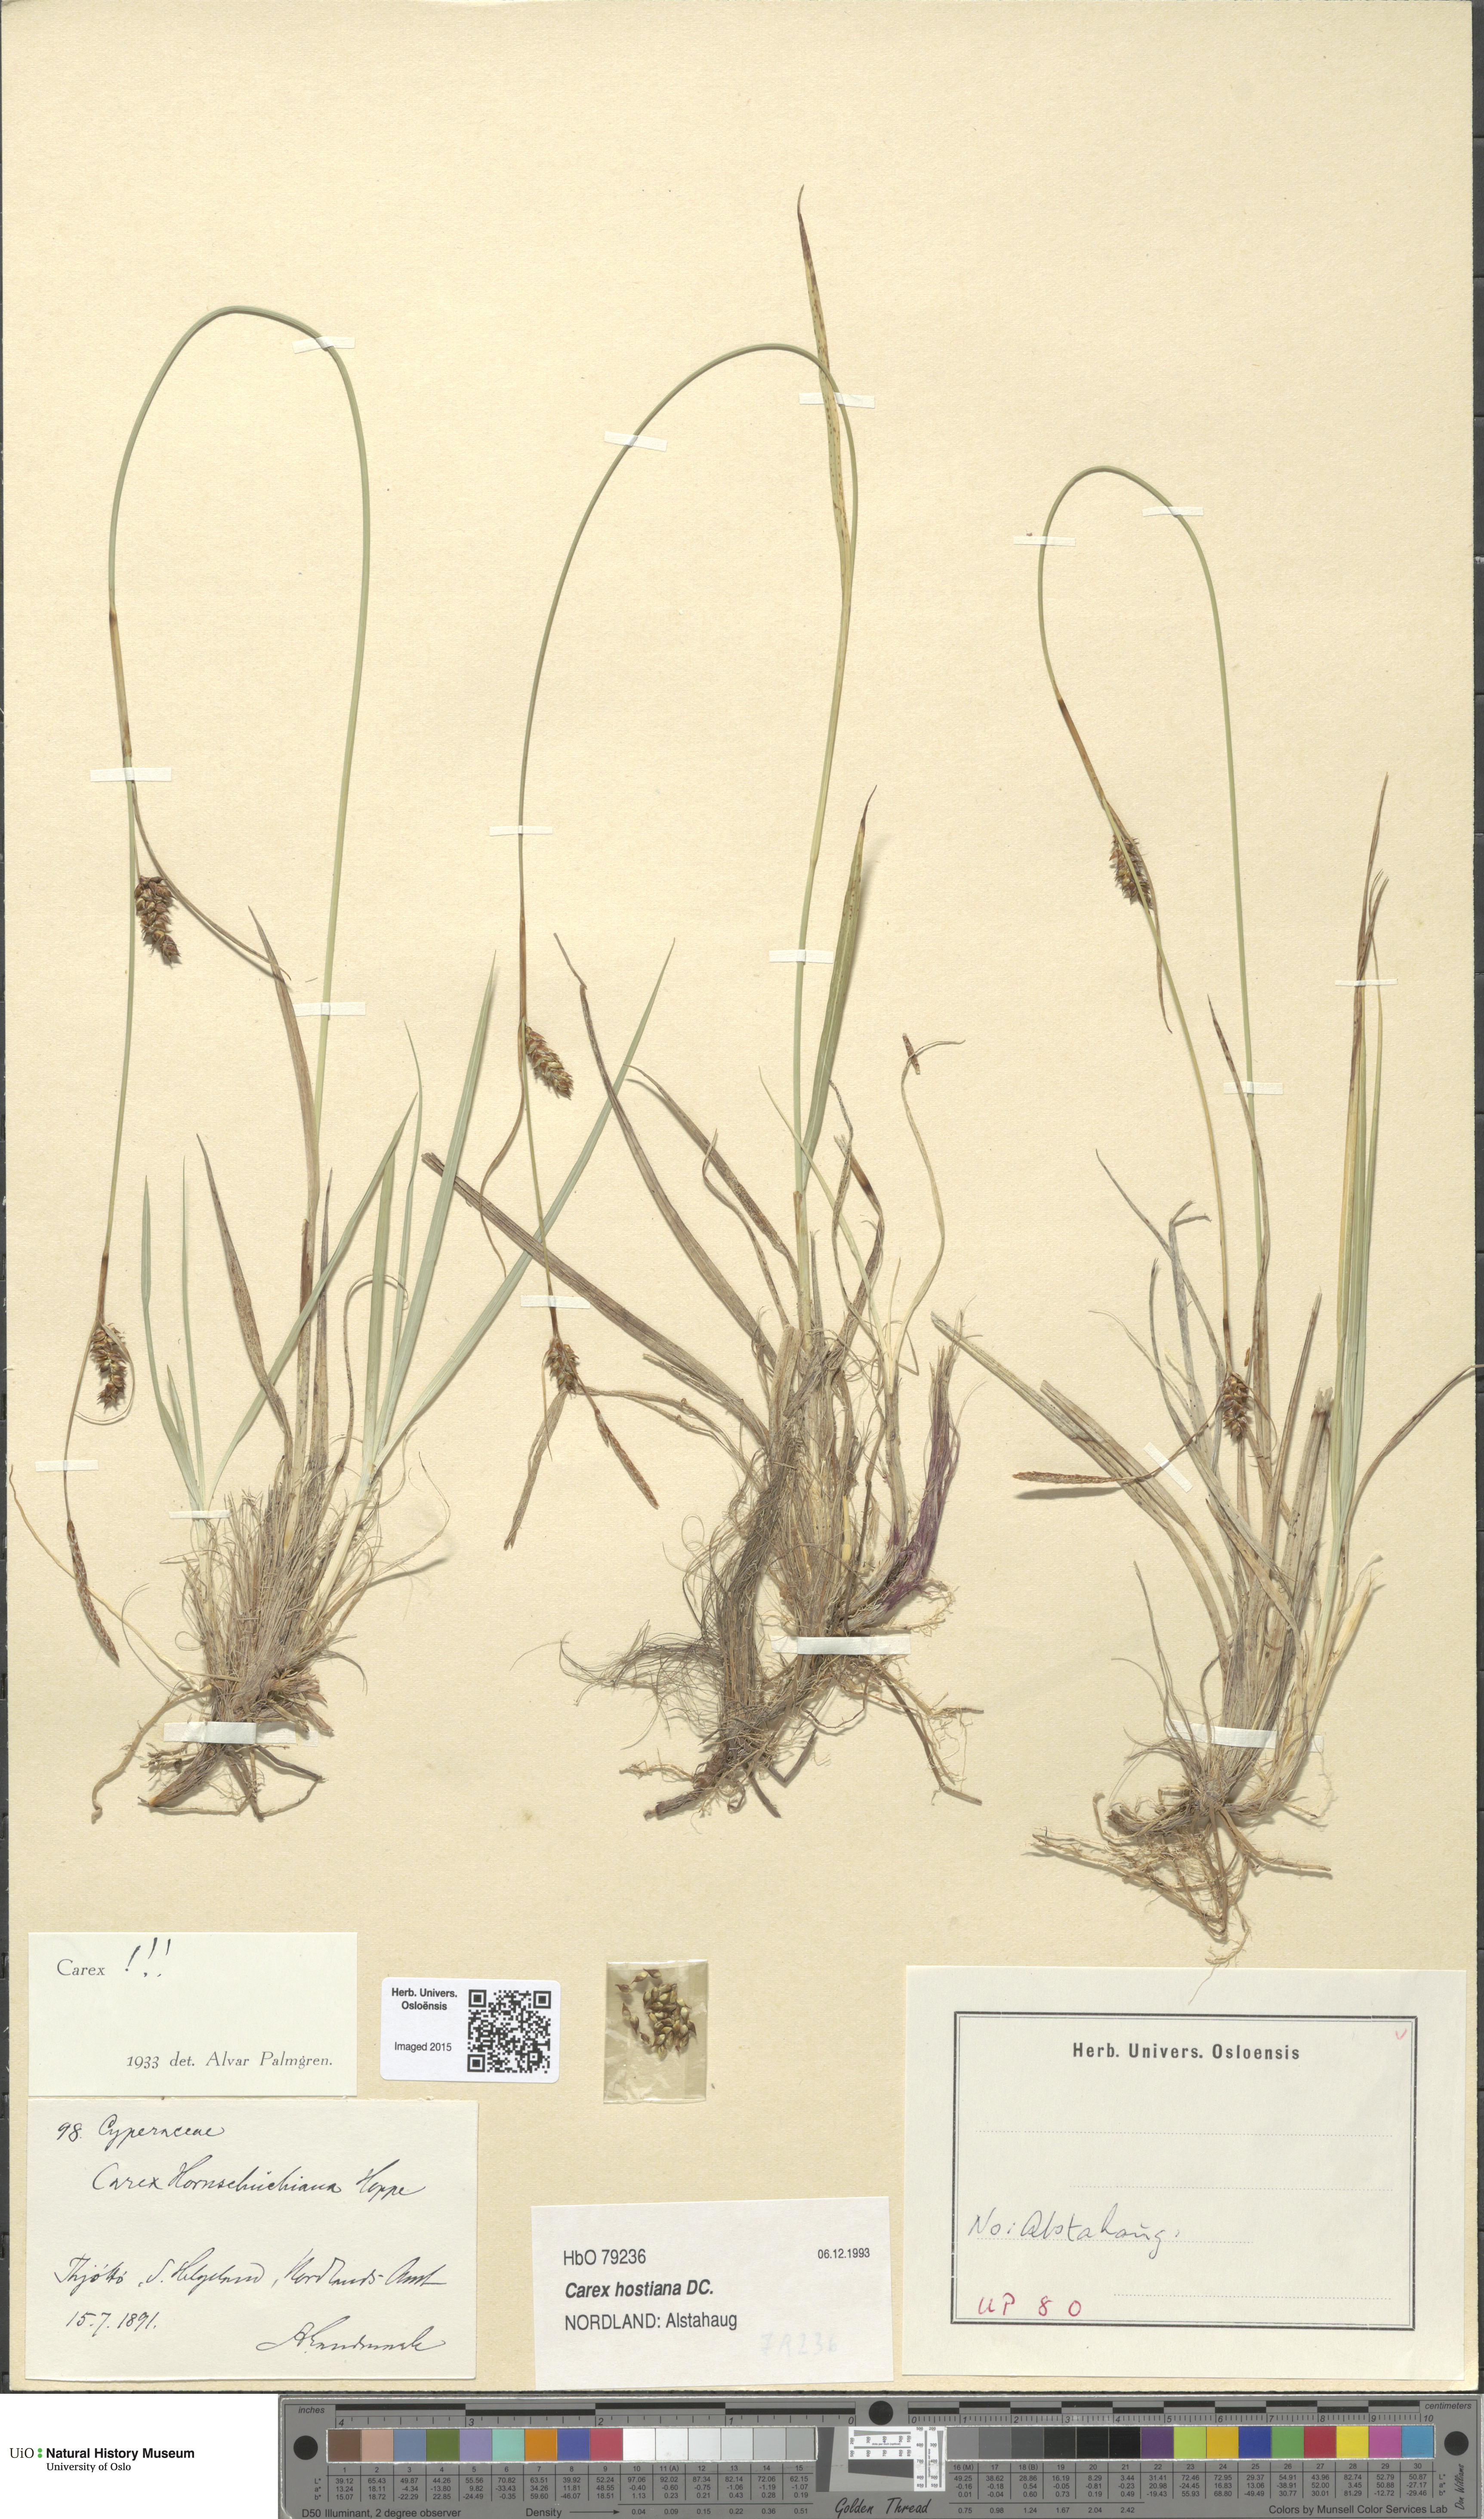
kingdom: Plantae
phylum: Tracheophyta
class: Liliopsida
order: Poales
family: Cyperaceae
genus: Carex
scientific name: Carex hostiana
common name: Tawny sedge
